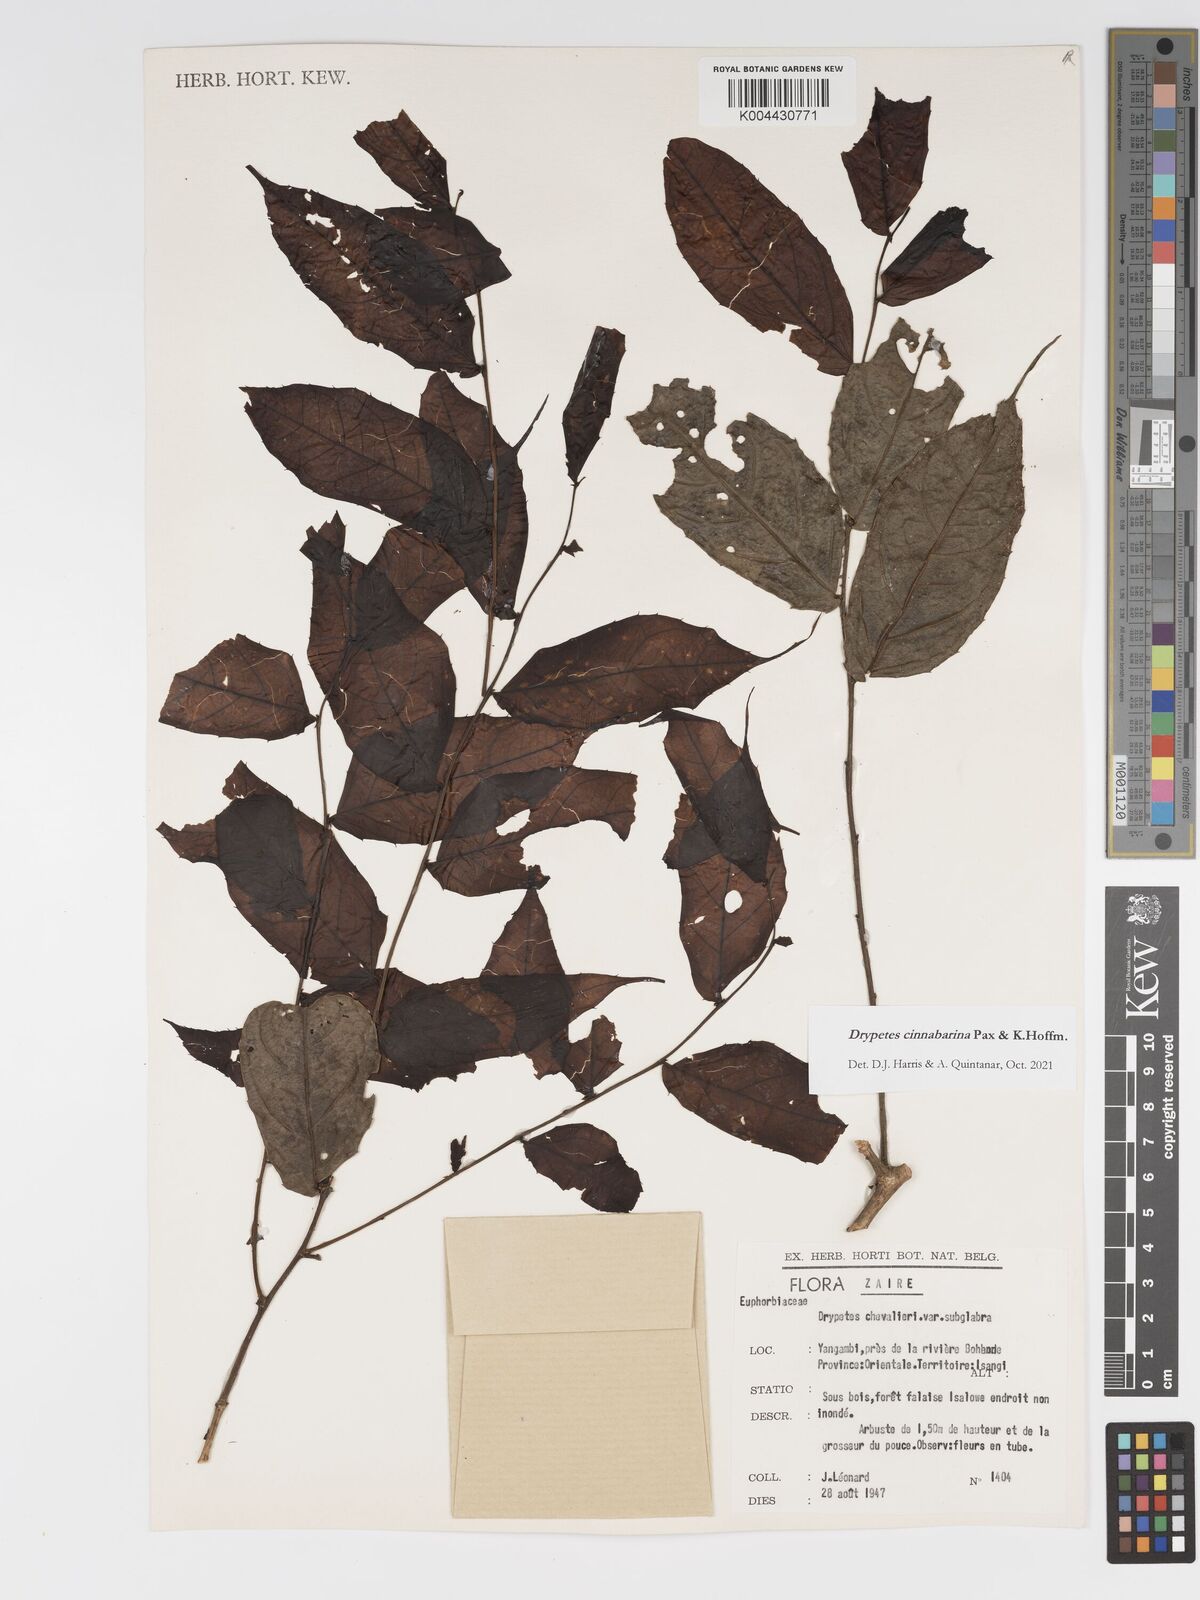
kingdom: Plantae
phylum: Tracheophyta
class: Magnoliopsida
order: Malpighiales
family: Putranjivaceae
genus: Drypetes
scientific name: Drypetes cinnabarina
